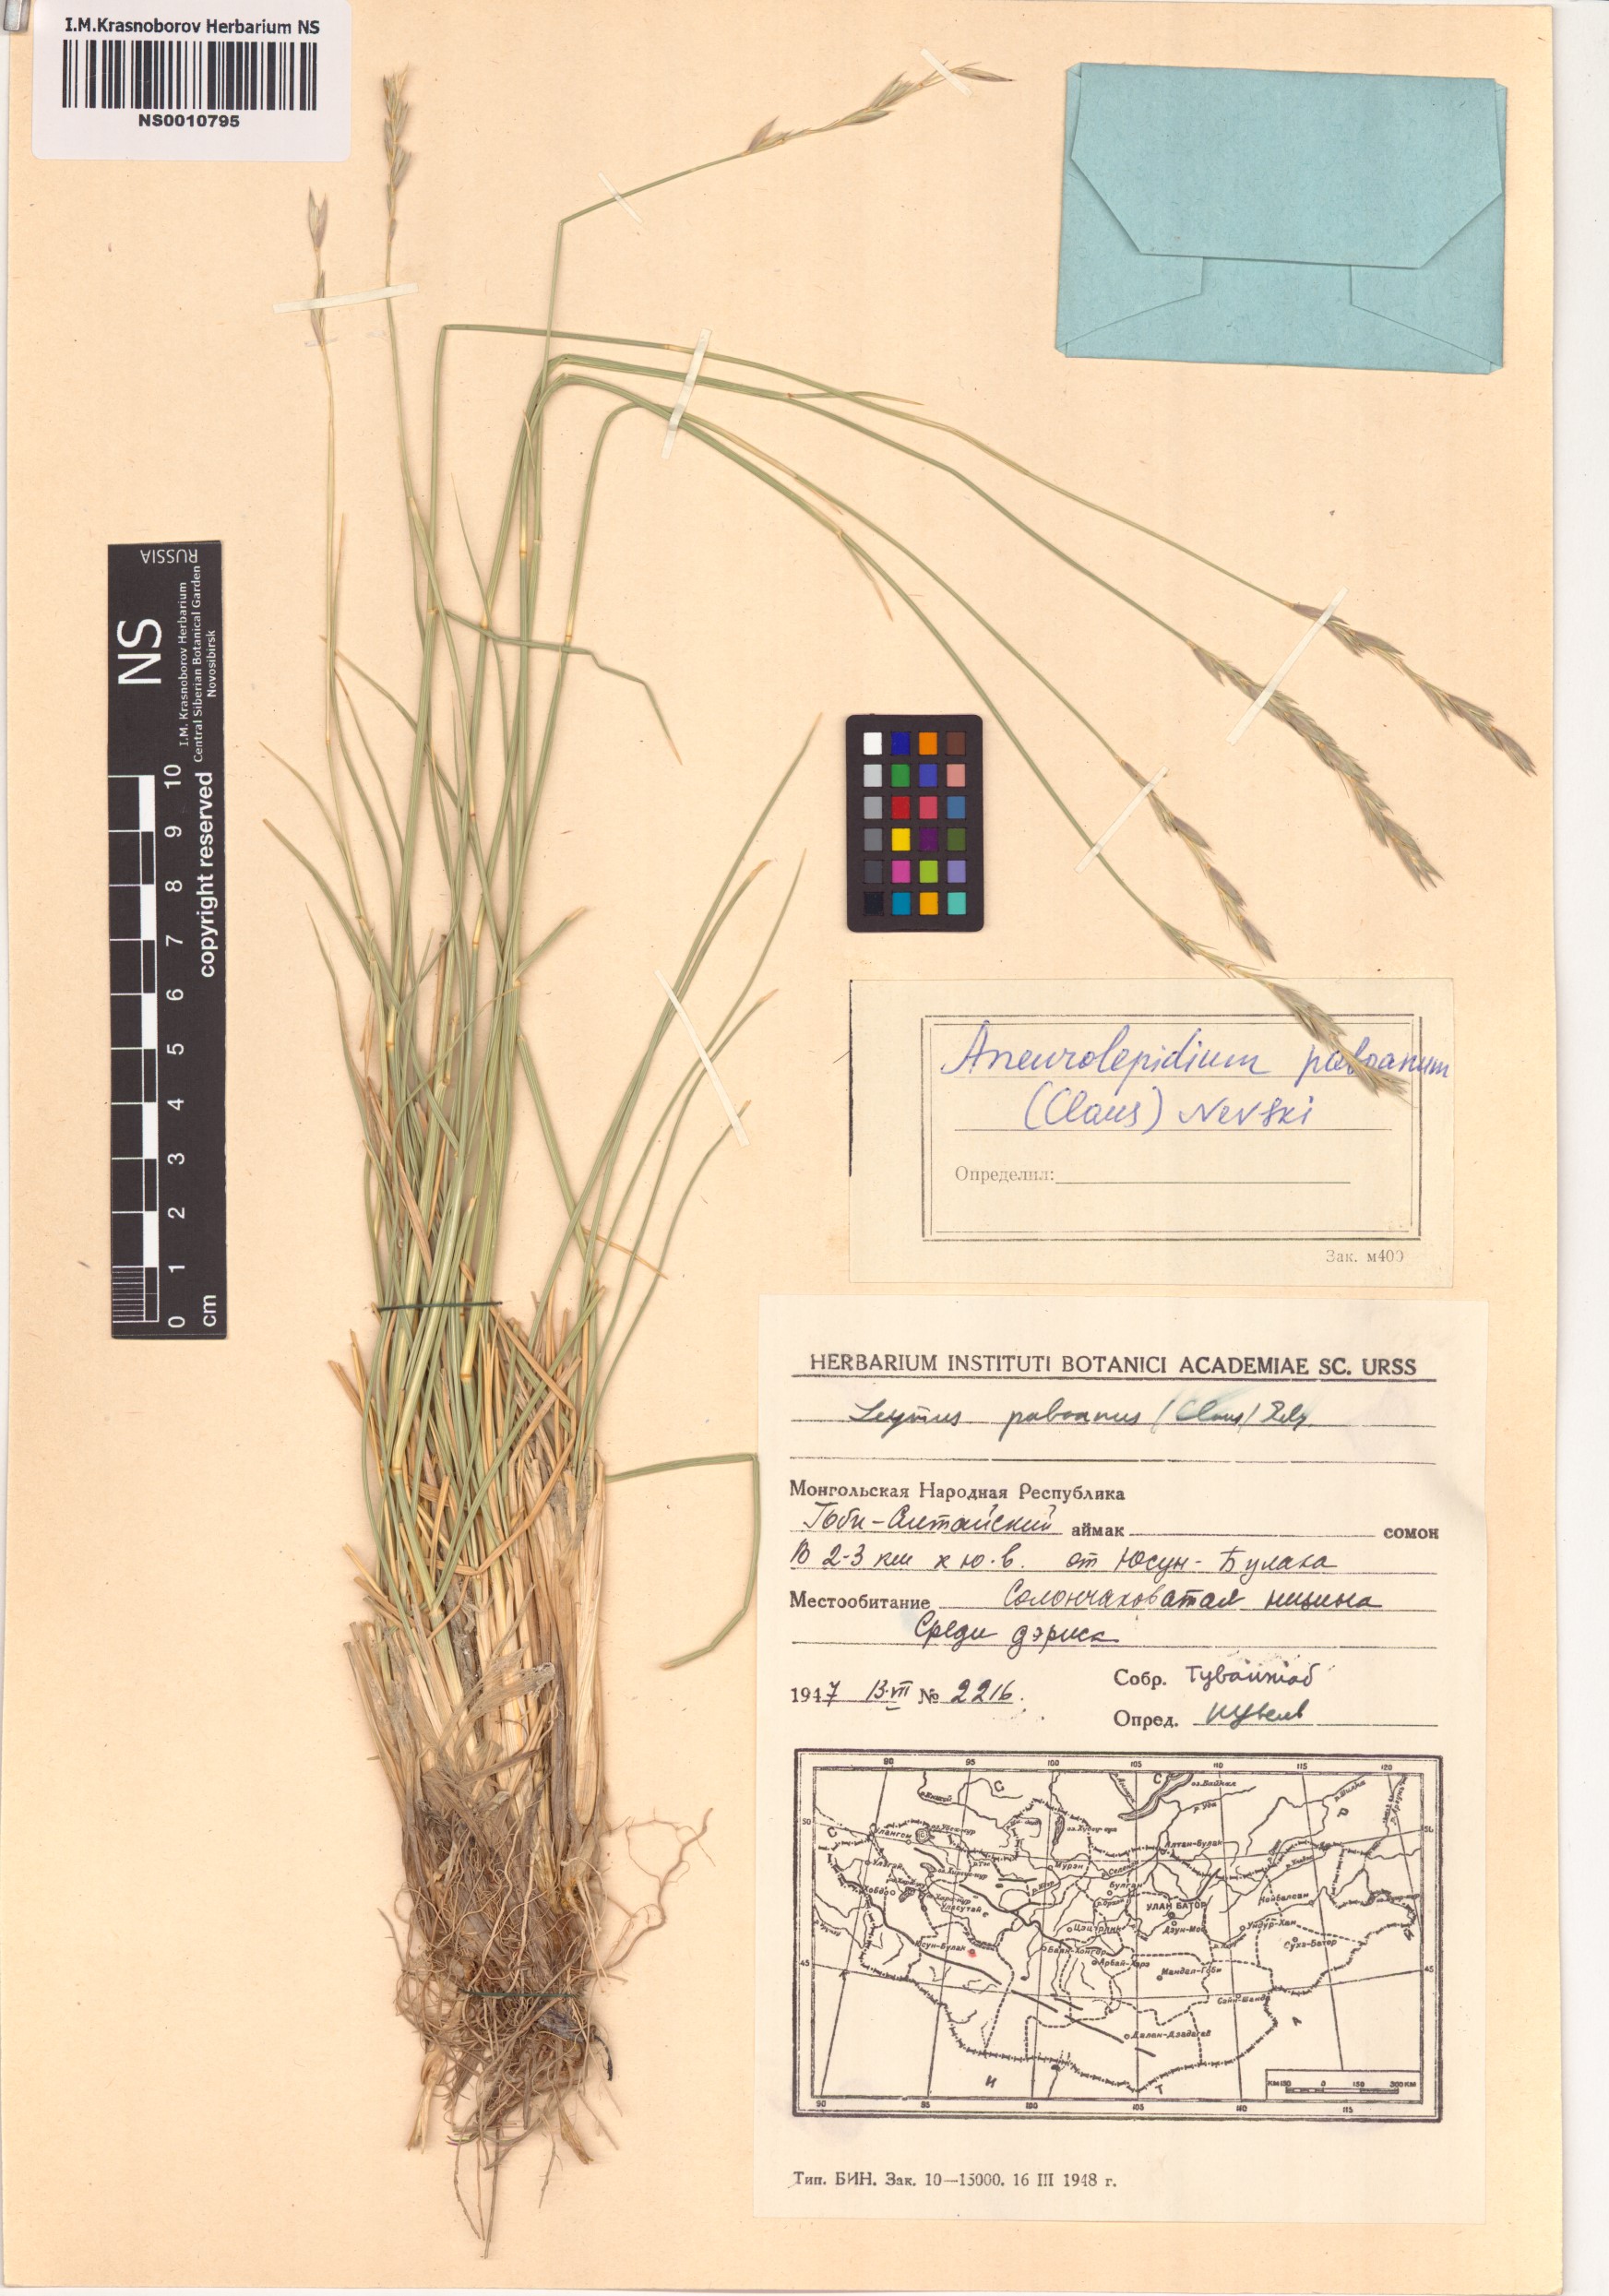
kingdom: Plantae
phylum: Tracheophyta
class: Liliopsida
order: Poales
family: Poaceae
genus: Leymus
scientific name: Leymus paboanus
